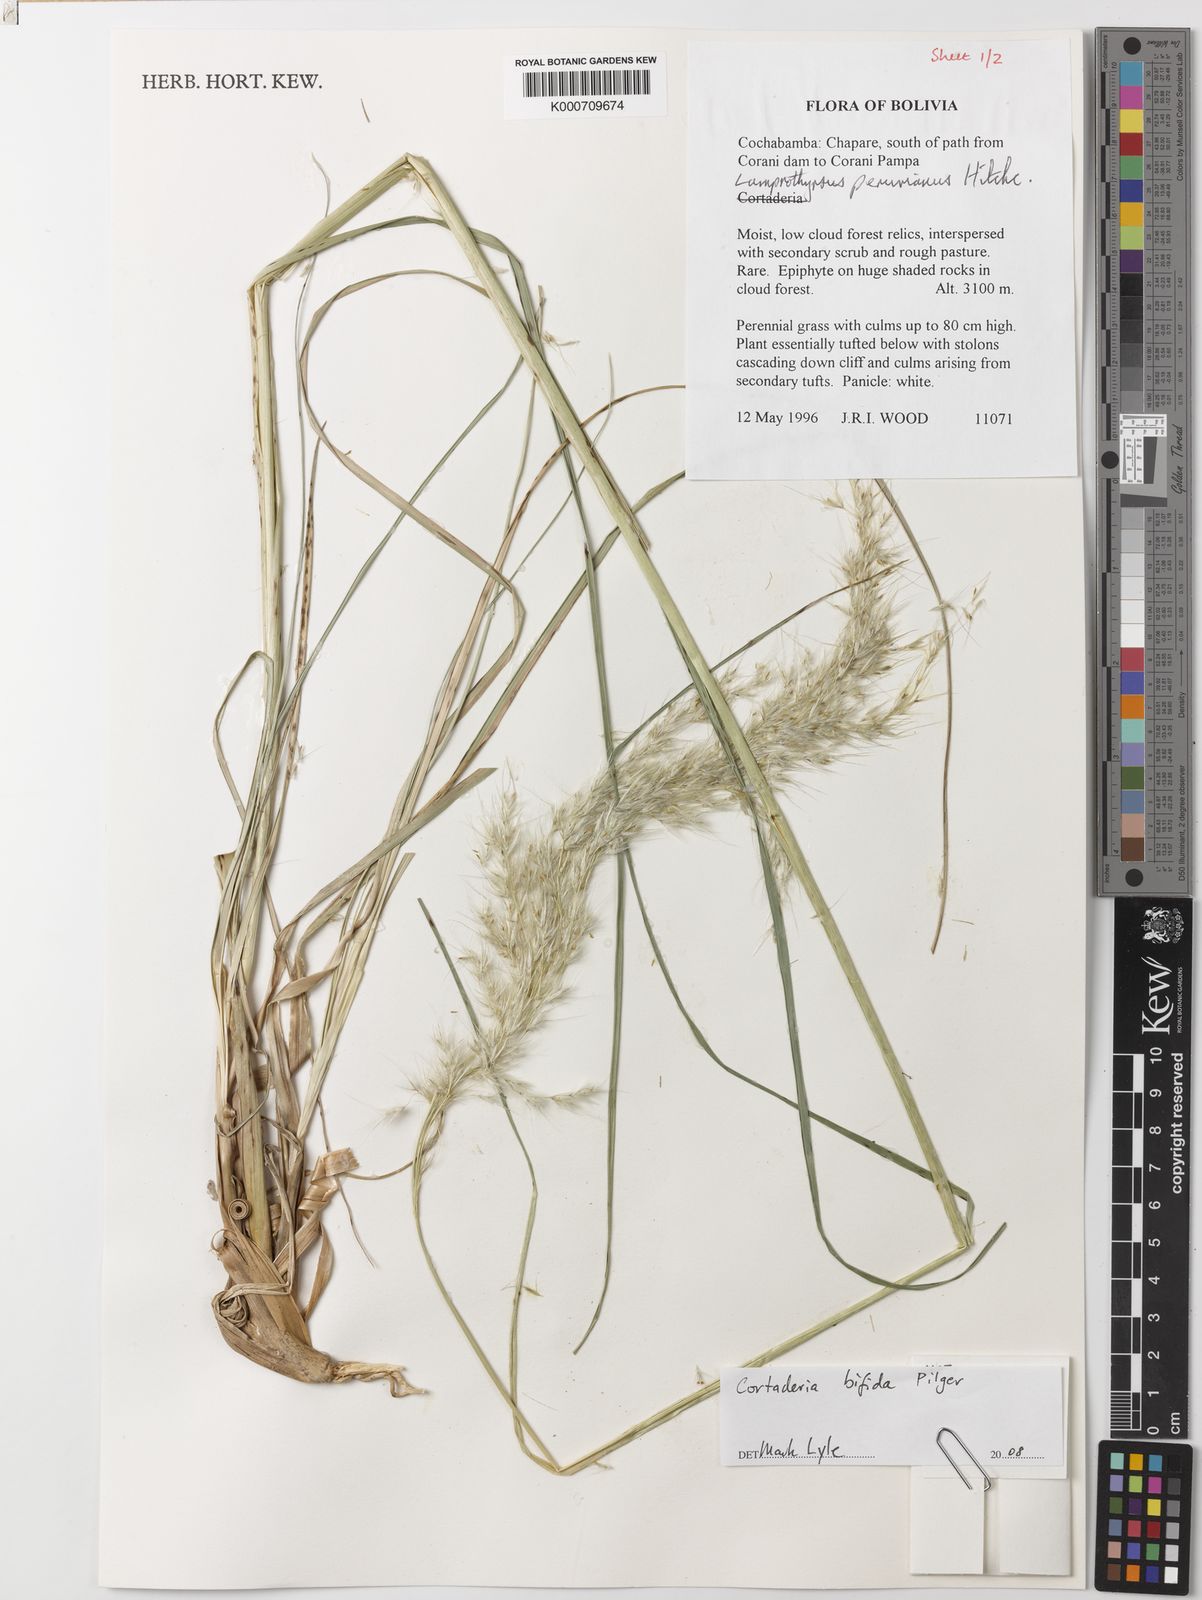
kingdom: Plantae
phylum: Tracheophyta
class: Liliopsida
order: Poales
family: Poaceae
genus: Cortaderia
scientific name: Cortaderia bifida
